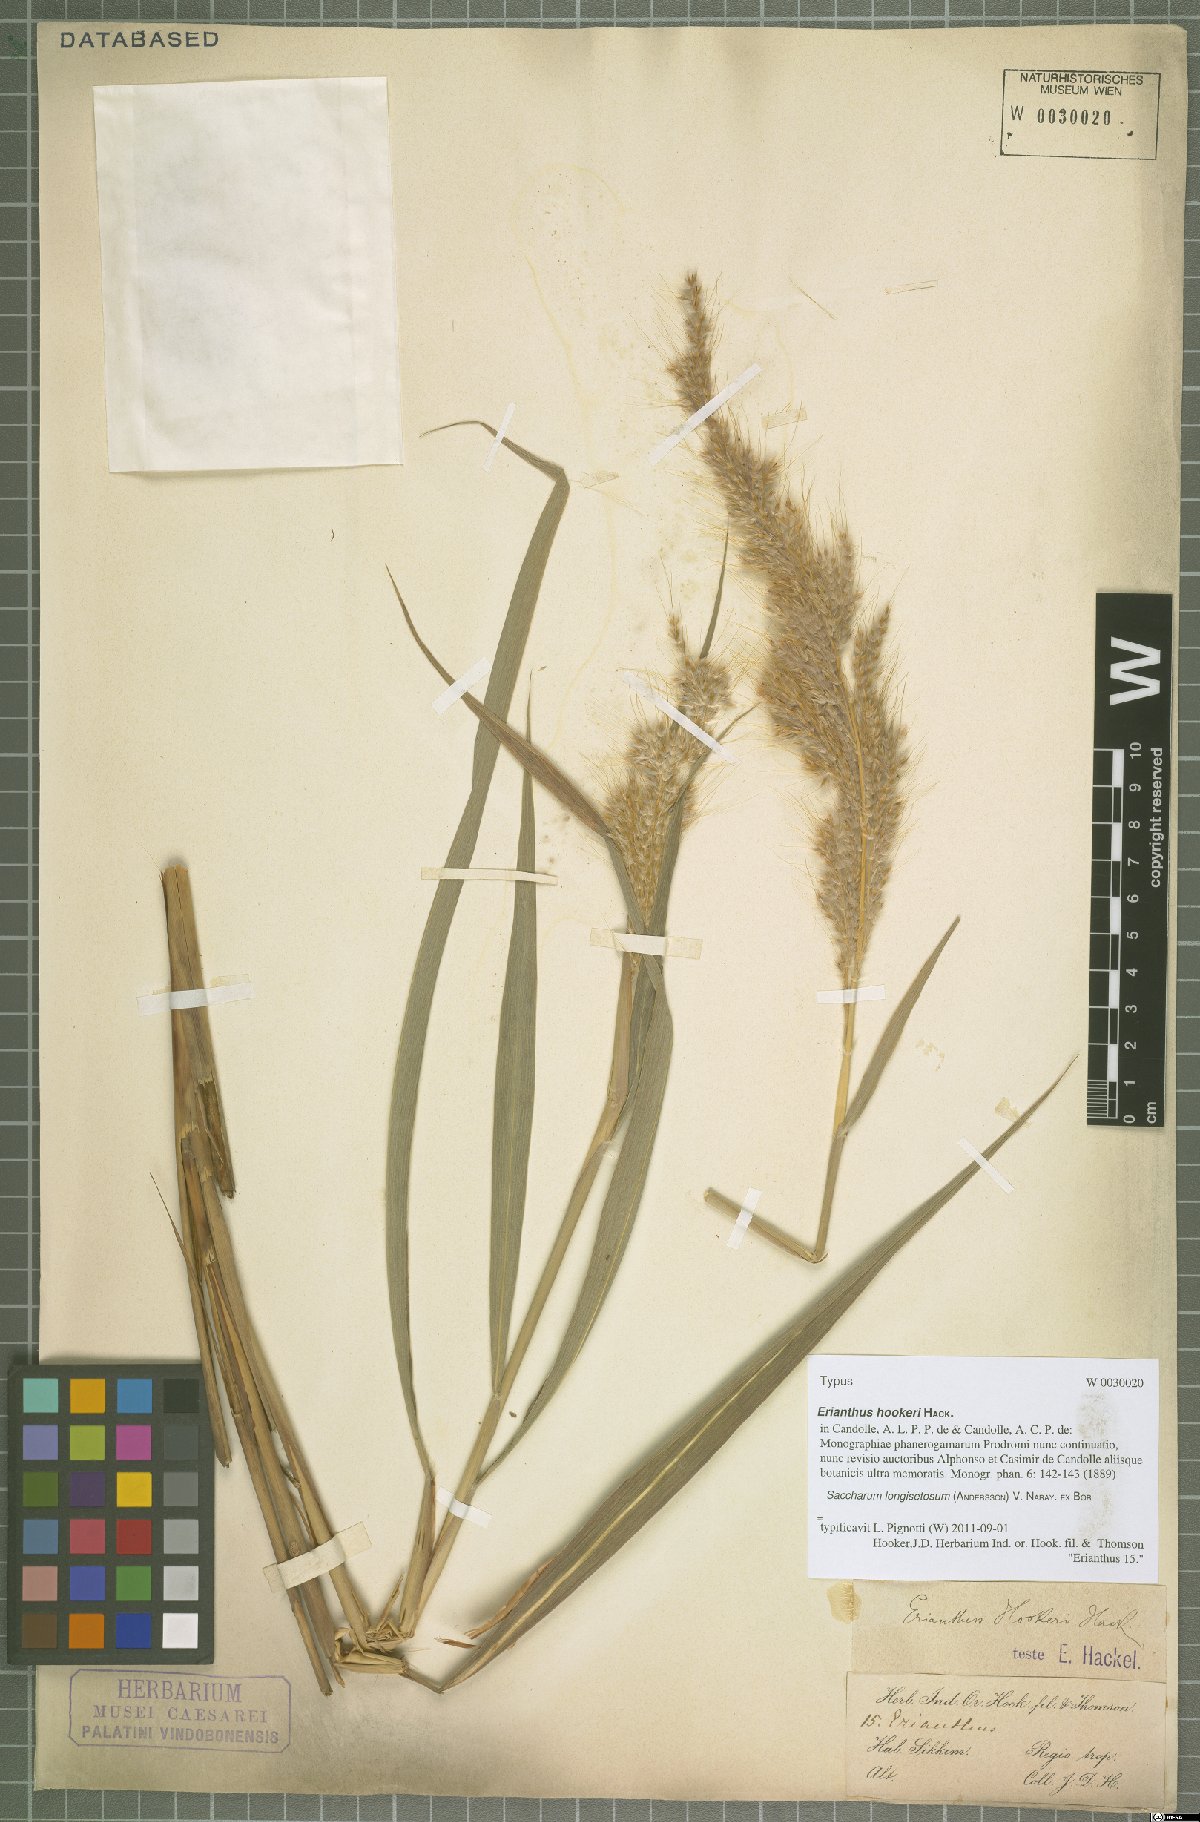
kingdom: Plantae
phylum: Tracheophyta
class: Liliopsida
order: Poales
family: Poaceae
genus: Saccharum
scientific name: Saccharum longisetosum
